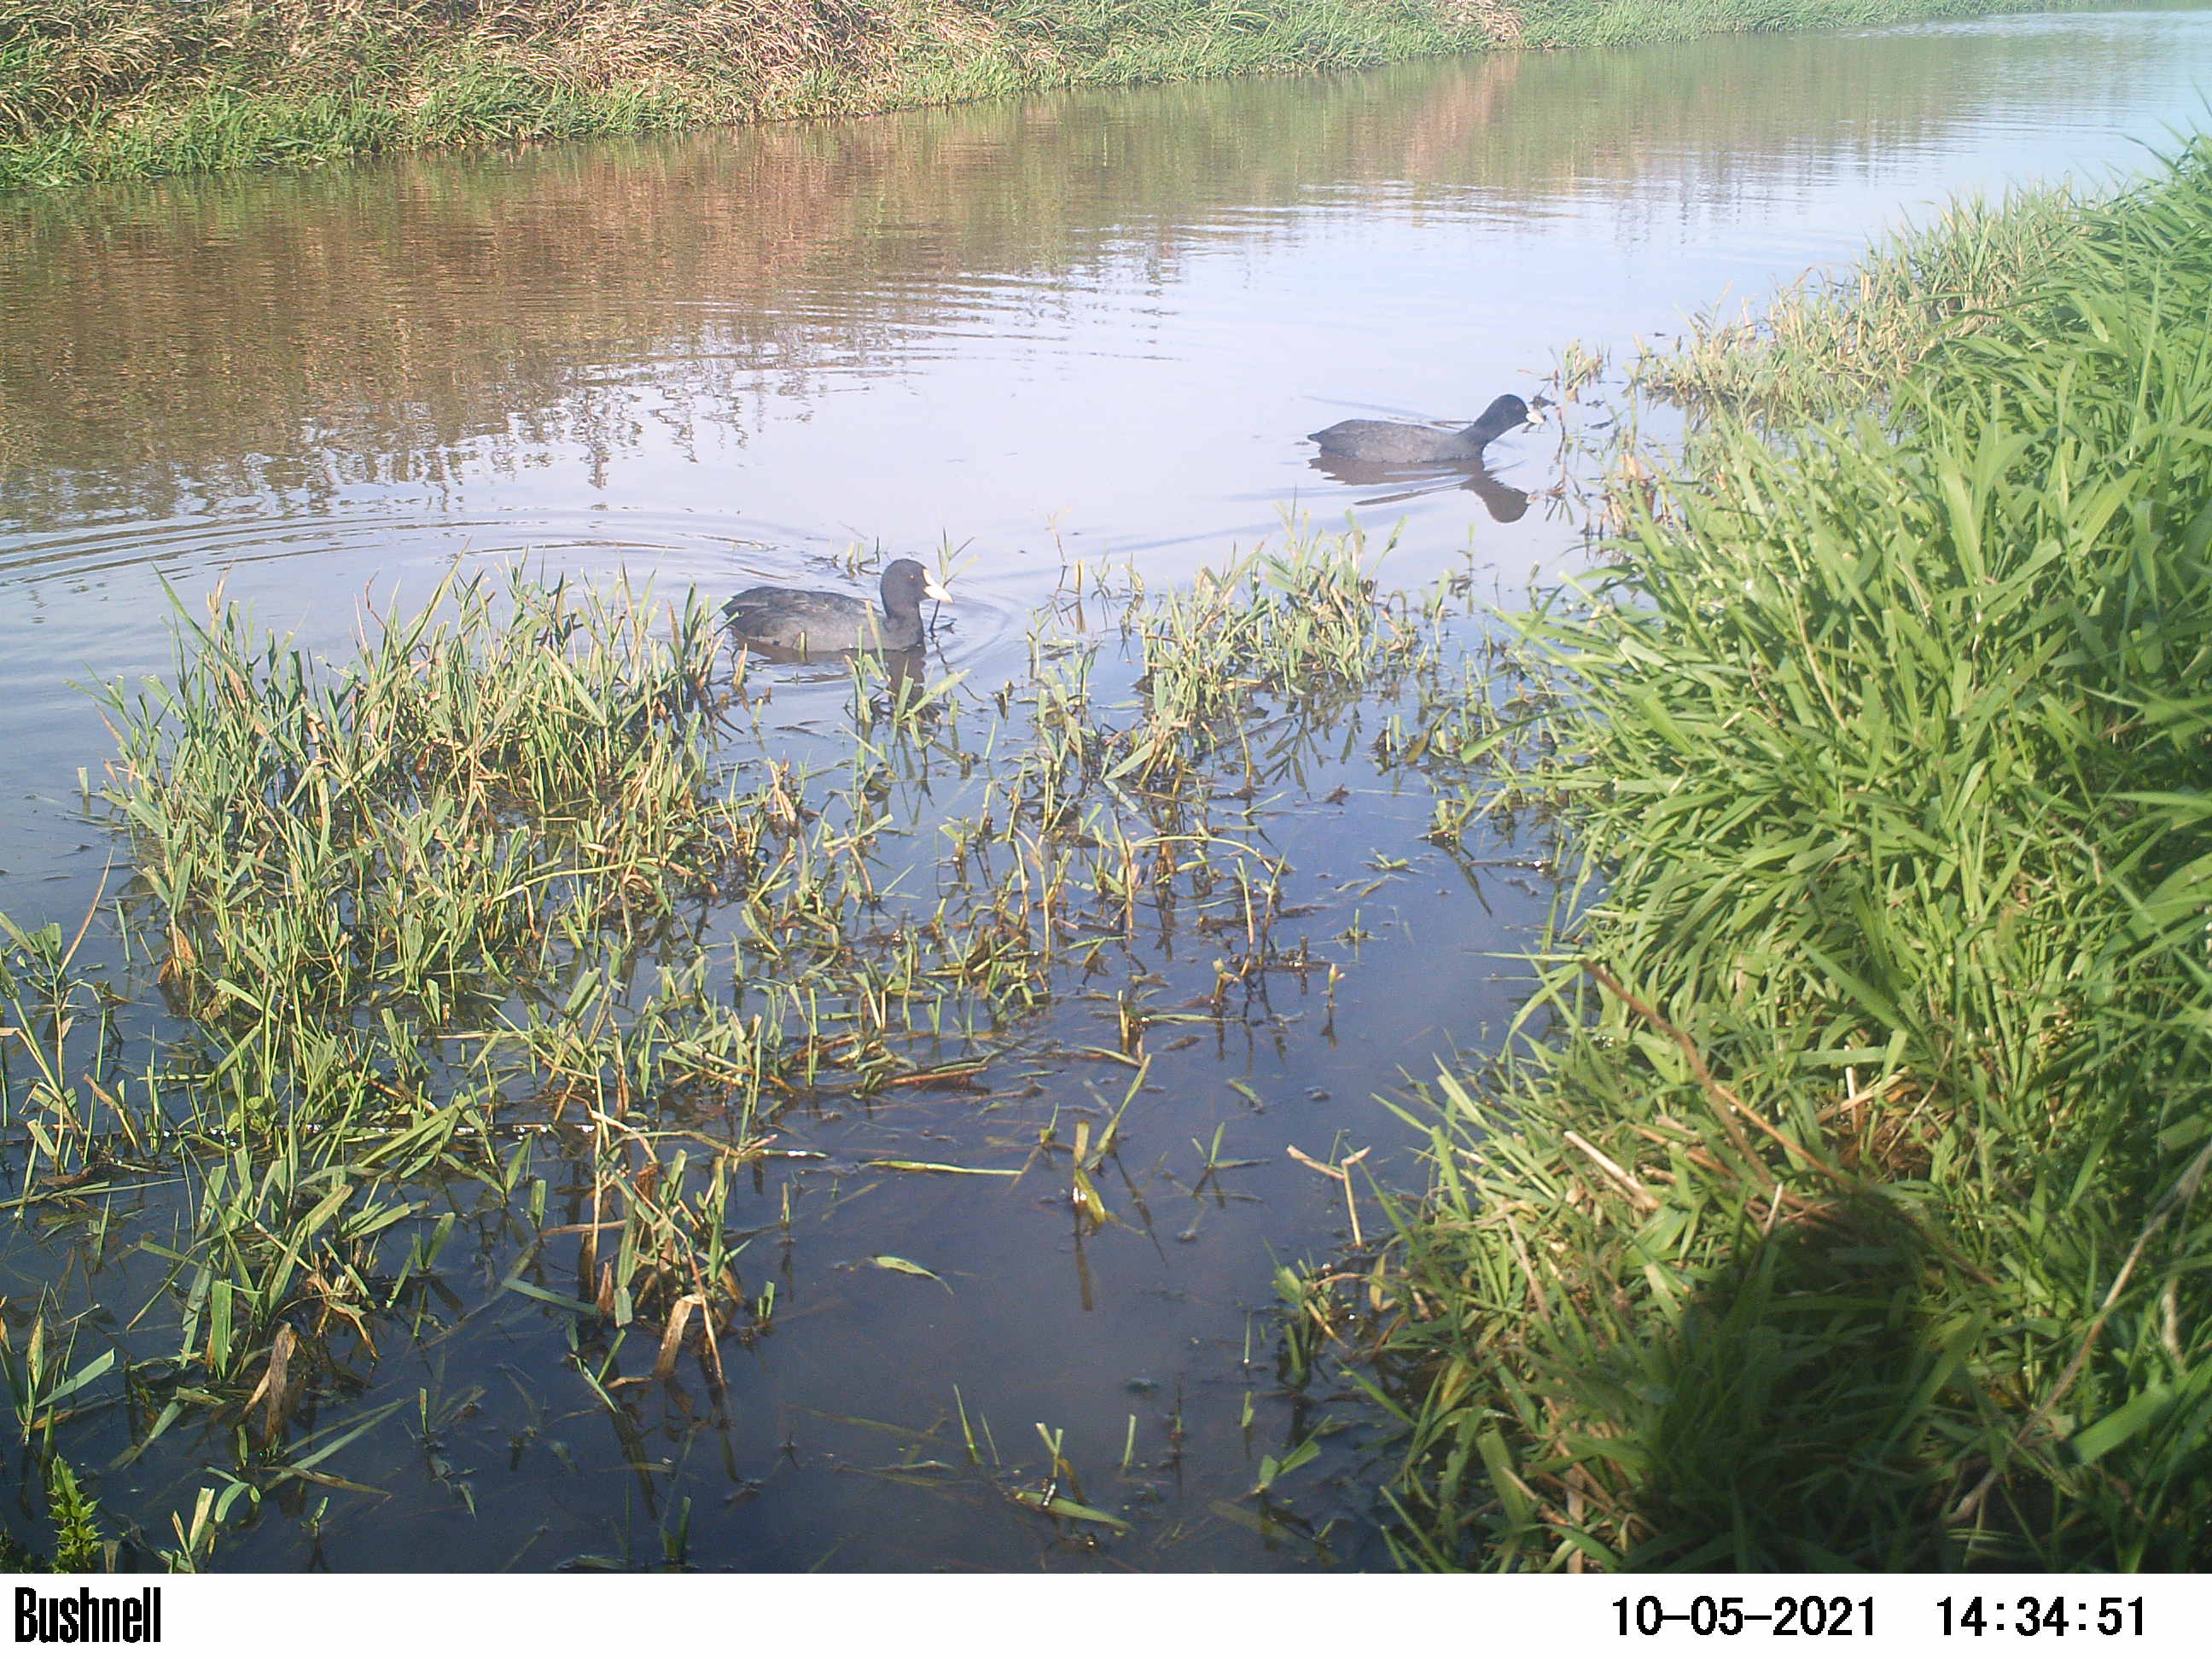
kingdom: Animalia
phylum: Chordata
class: Aves
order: Anseriformes
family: Anatidae
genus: Anas
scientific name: Anas
